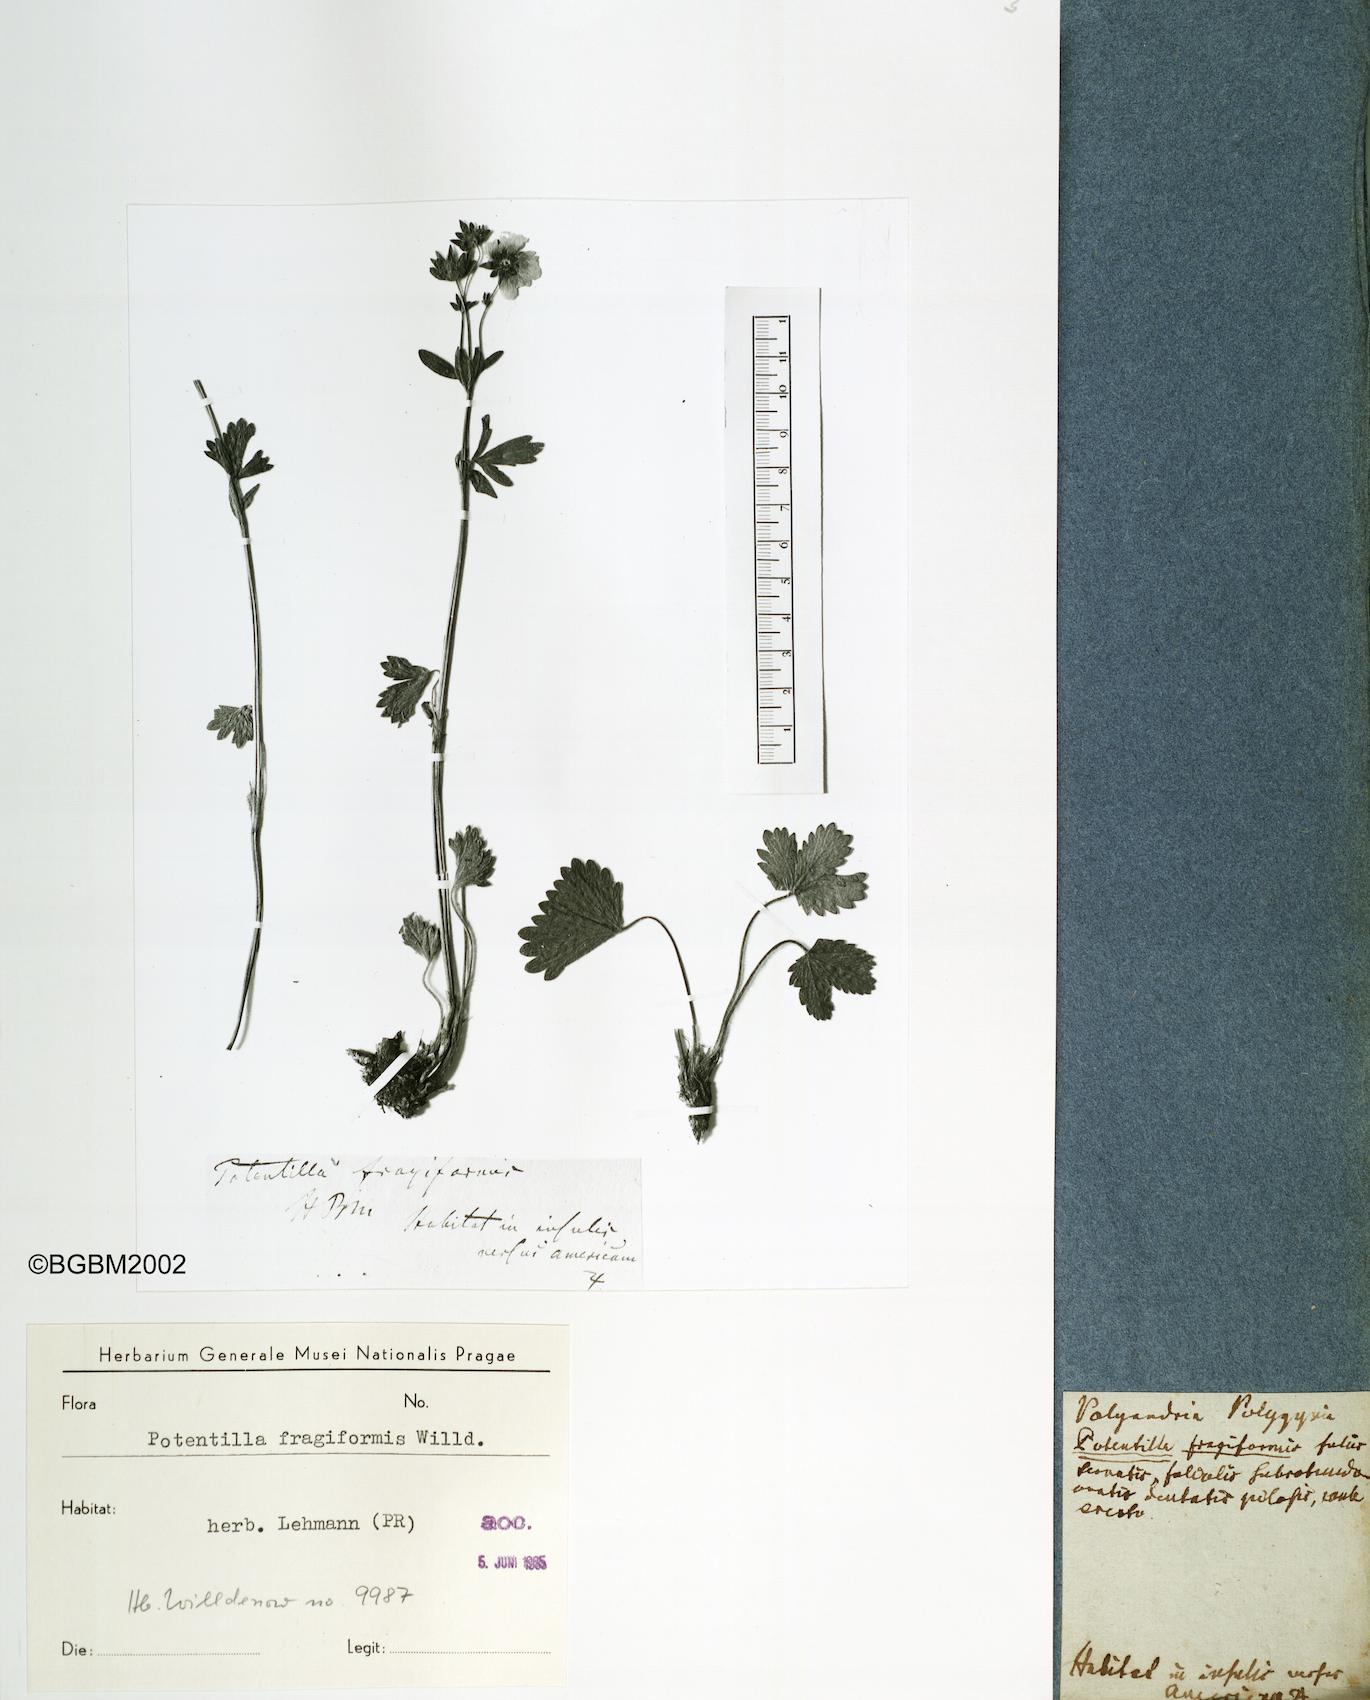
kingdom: Plantae
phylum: Tracheophyta
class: Magnoliopsida
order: Rosales
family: Rosaceae
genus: Potentilla
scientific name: Potentilla fragiformis
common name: Strawberry cinquefoil
